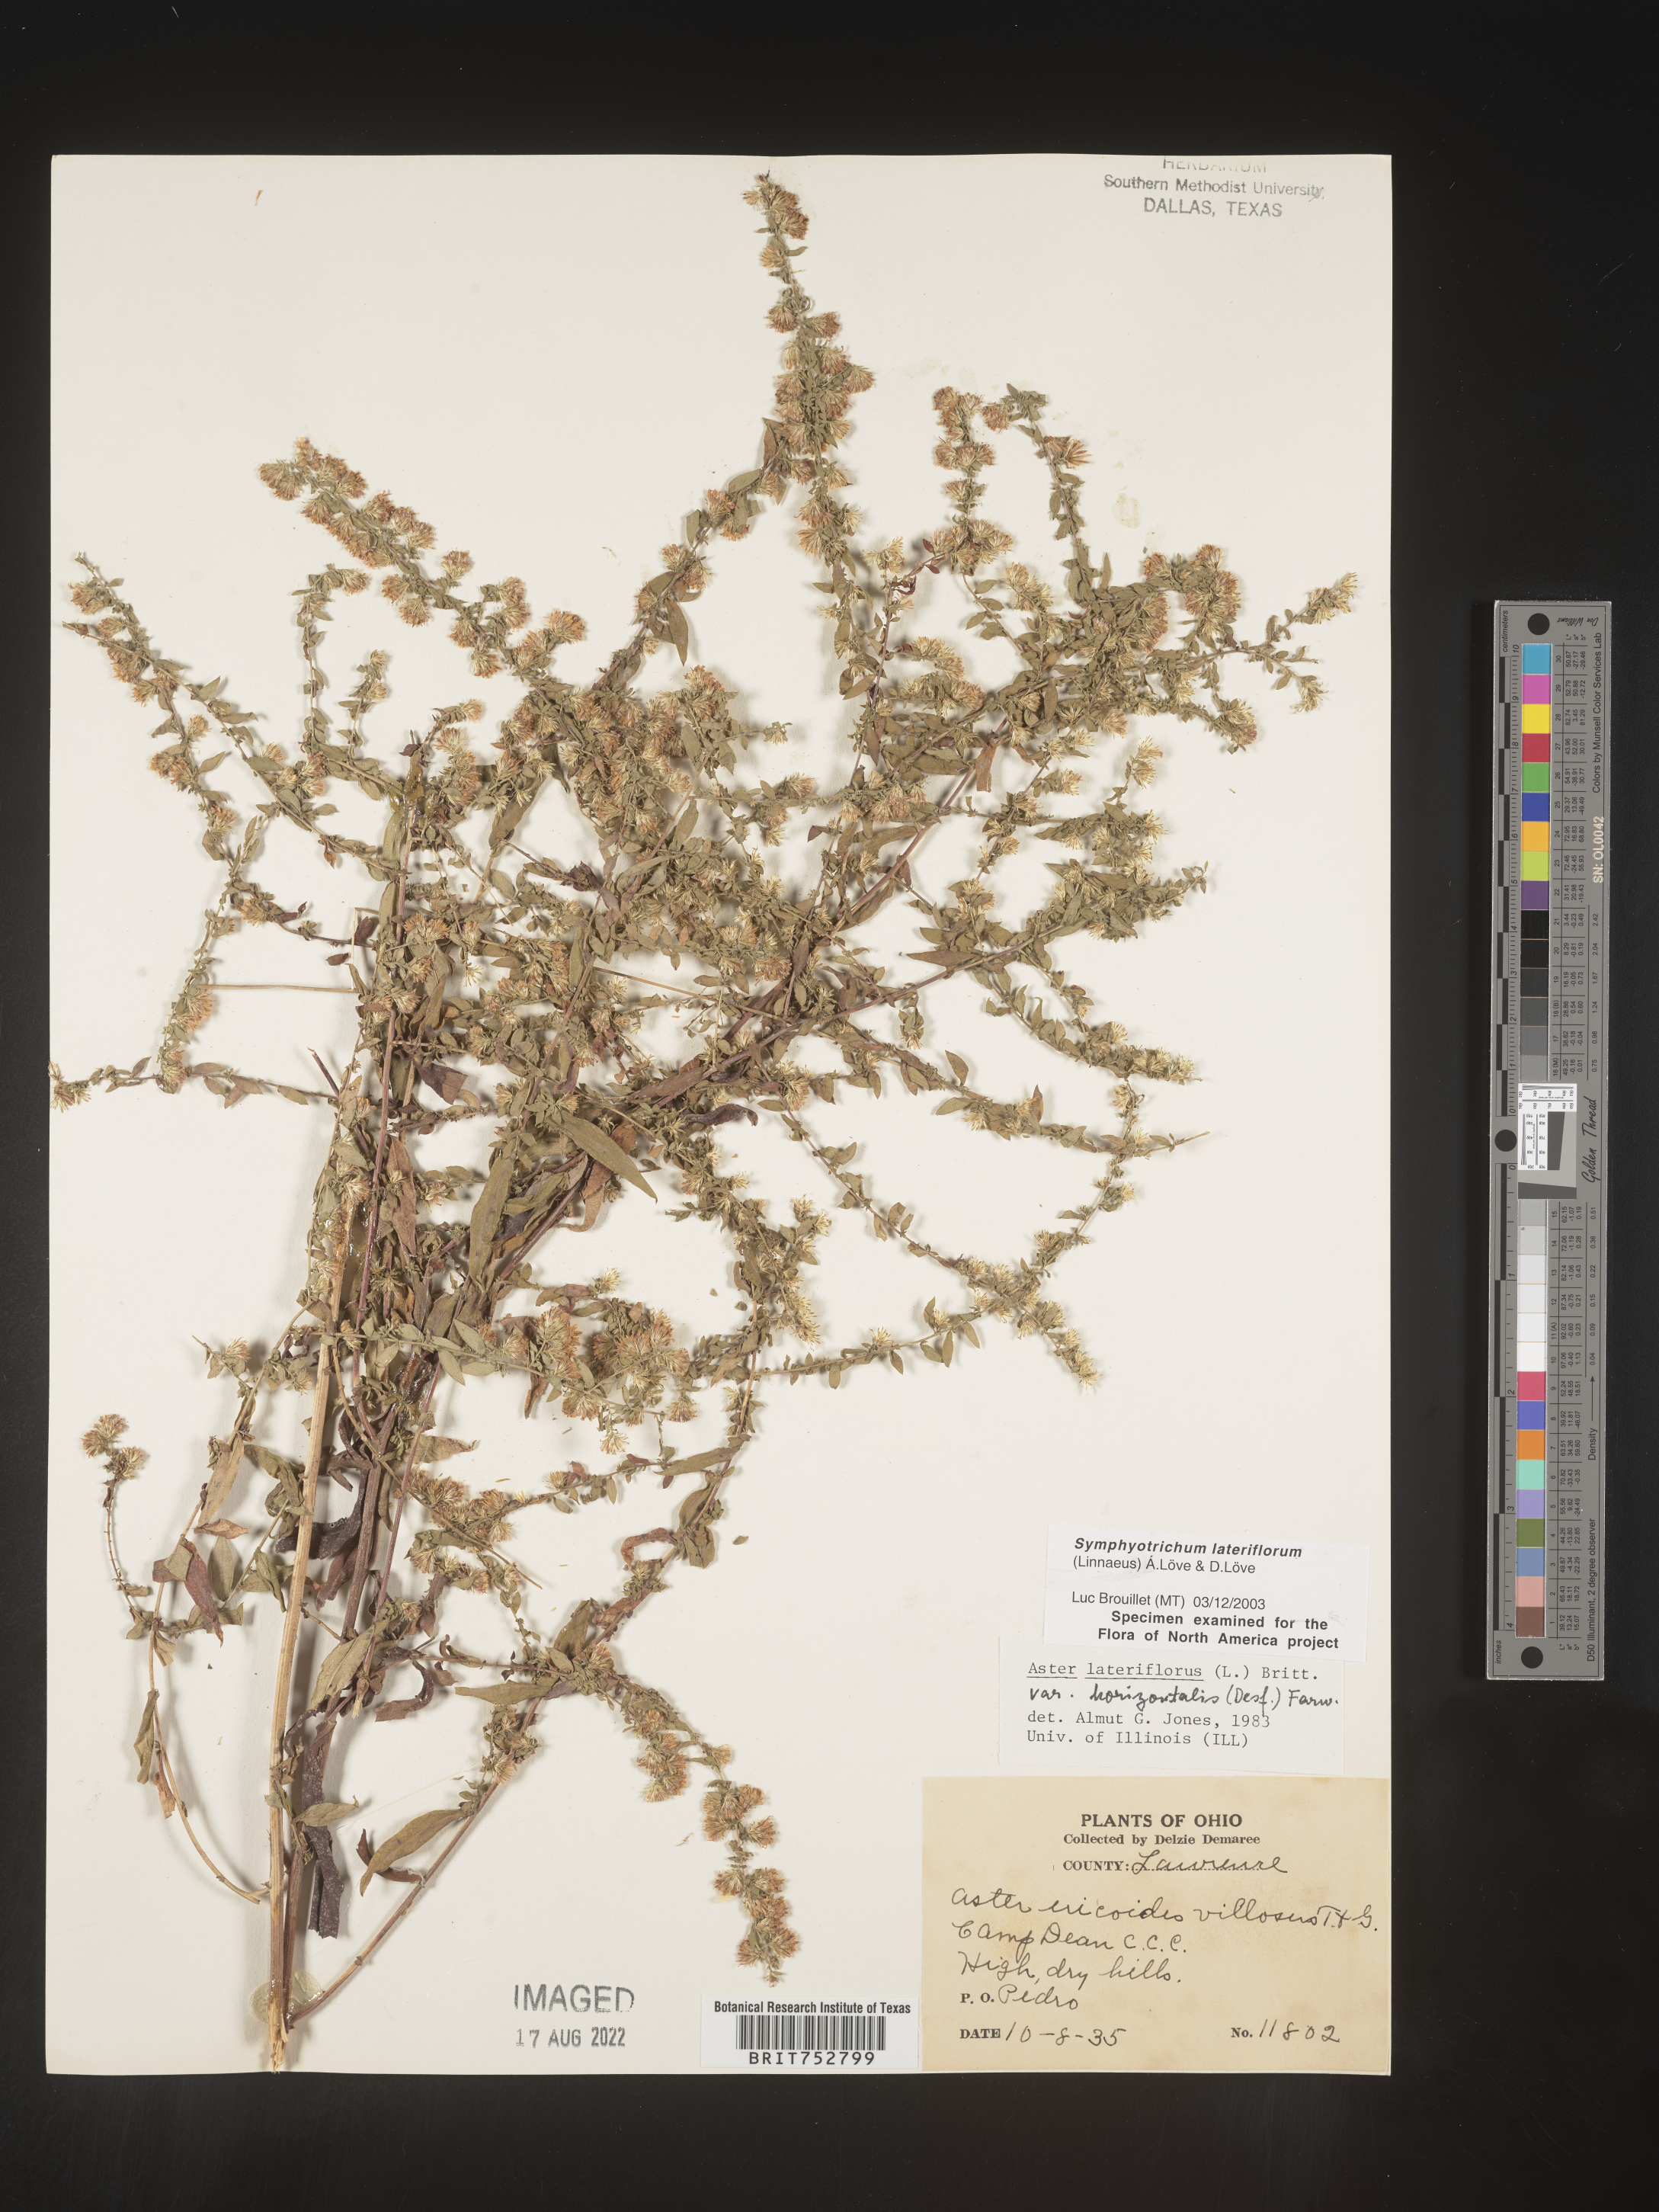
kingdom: Plantae
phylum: Tracheophyta
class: Magnoliopsida
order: Asterales
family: Asteraceae
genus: Symphyotrichum
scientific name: Symphyotrichum lateriflorum
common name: Calico aster
